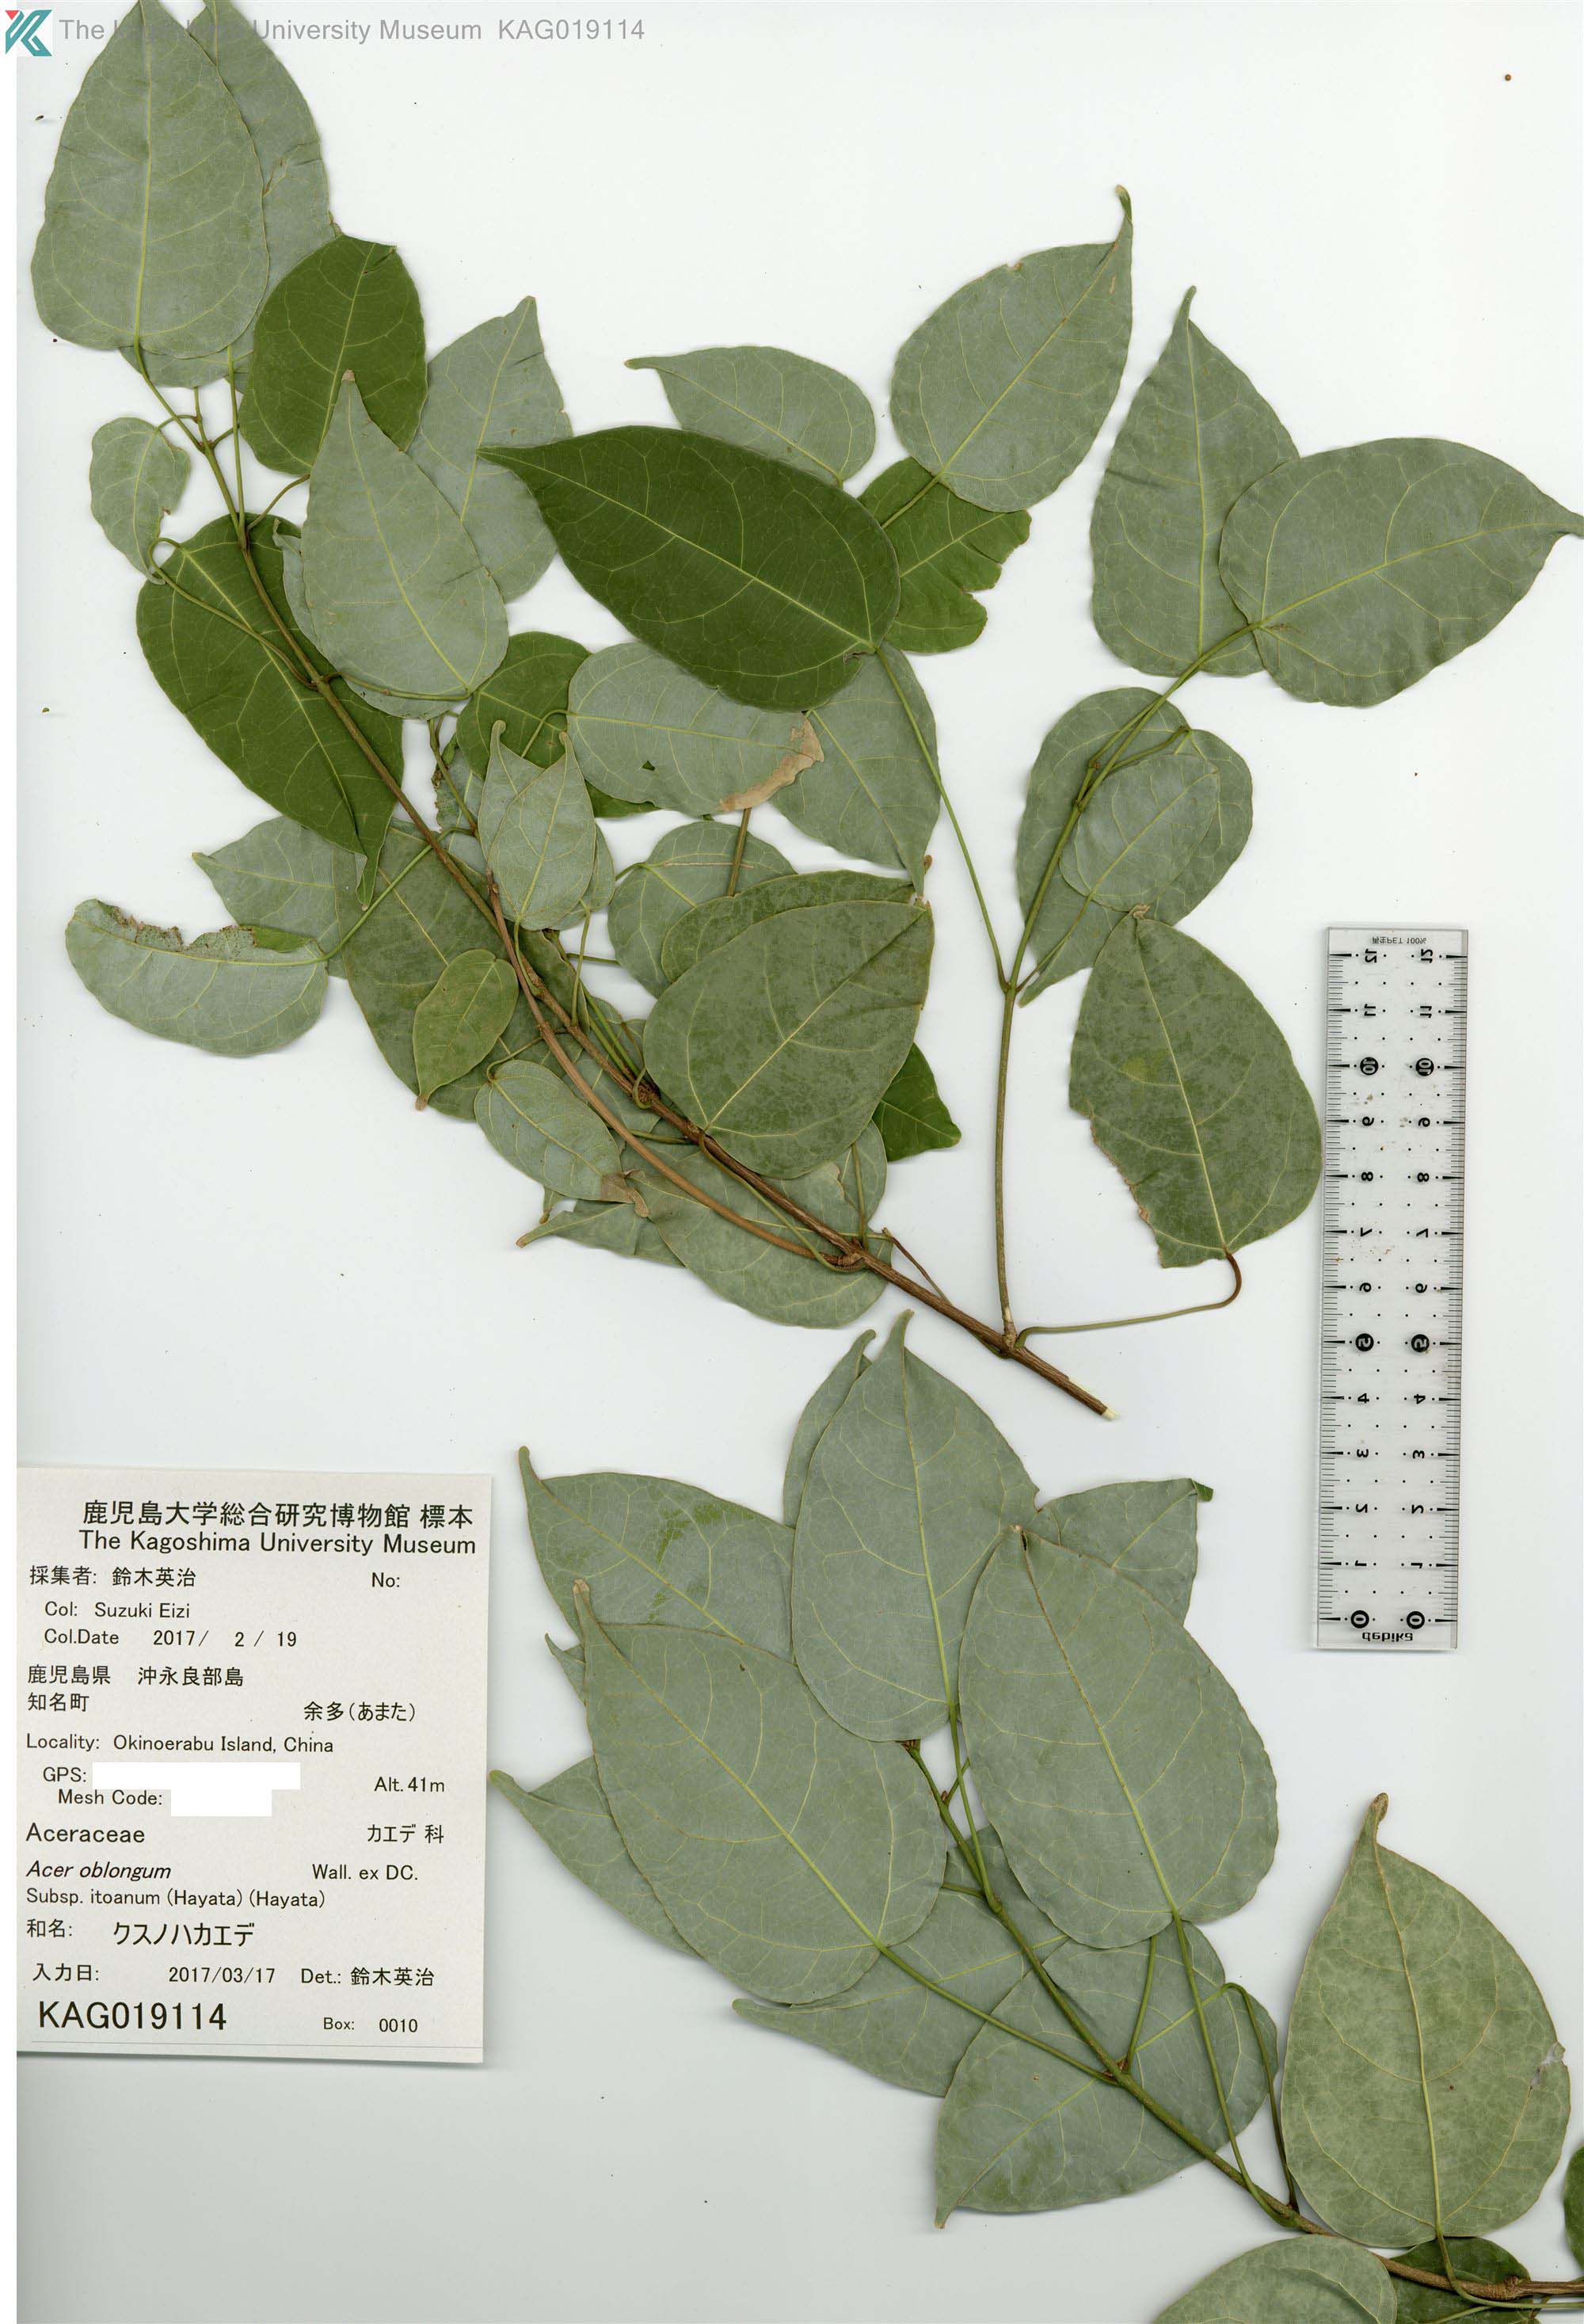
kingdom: Plantae
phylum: Tracheophyta
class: Magnoliopsida
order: Sapindales
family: Sapindaceae
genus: Acer
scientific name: Acer oblongum
